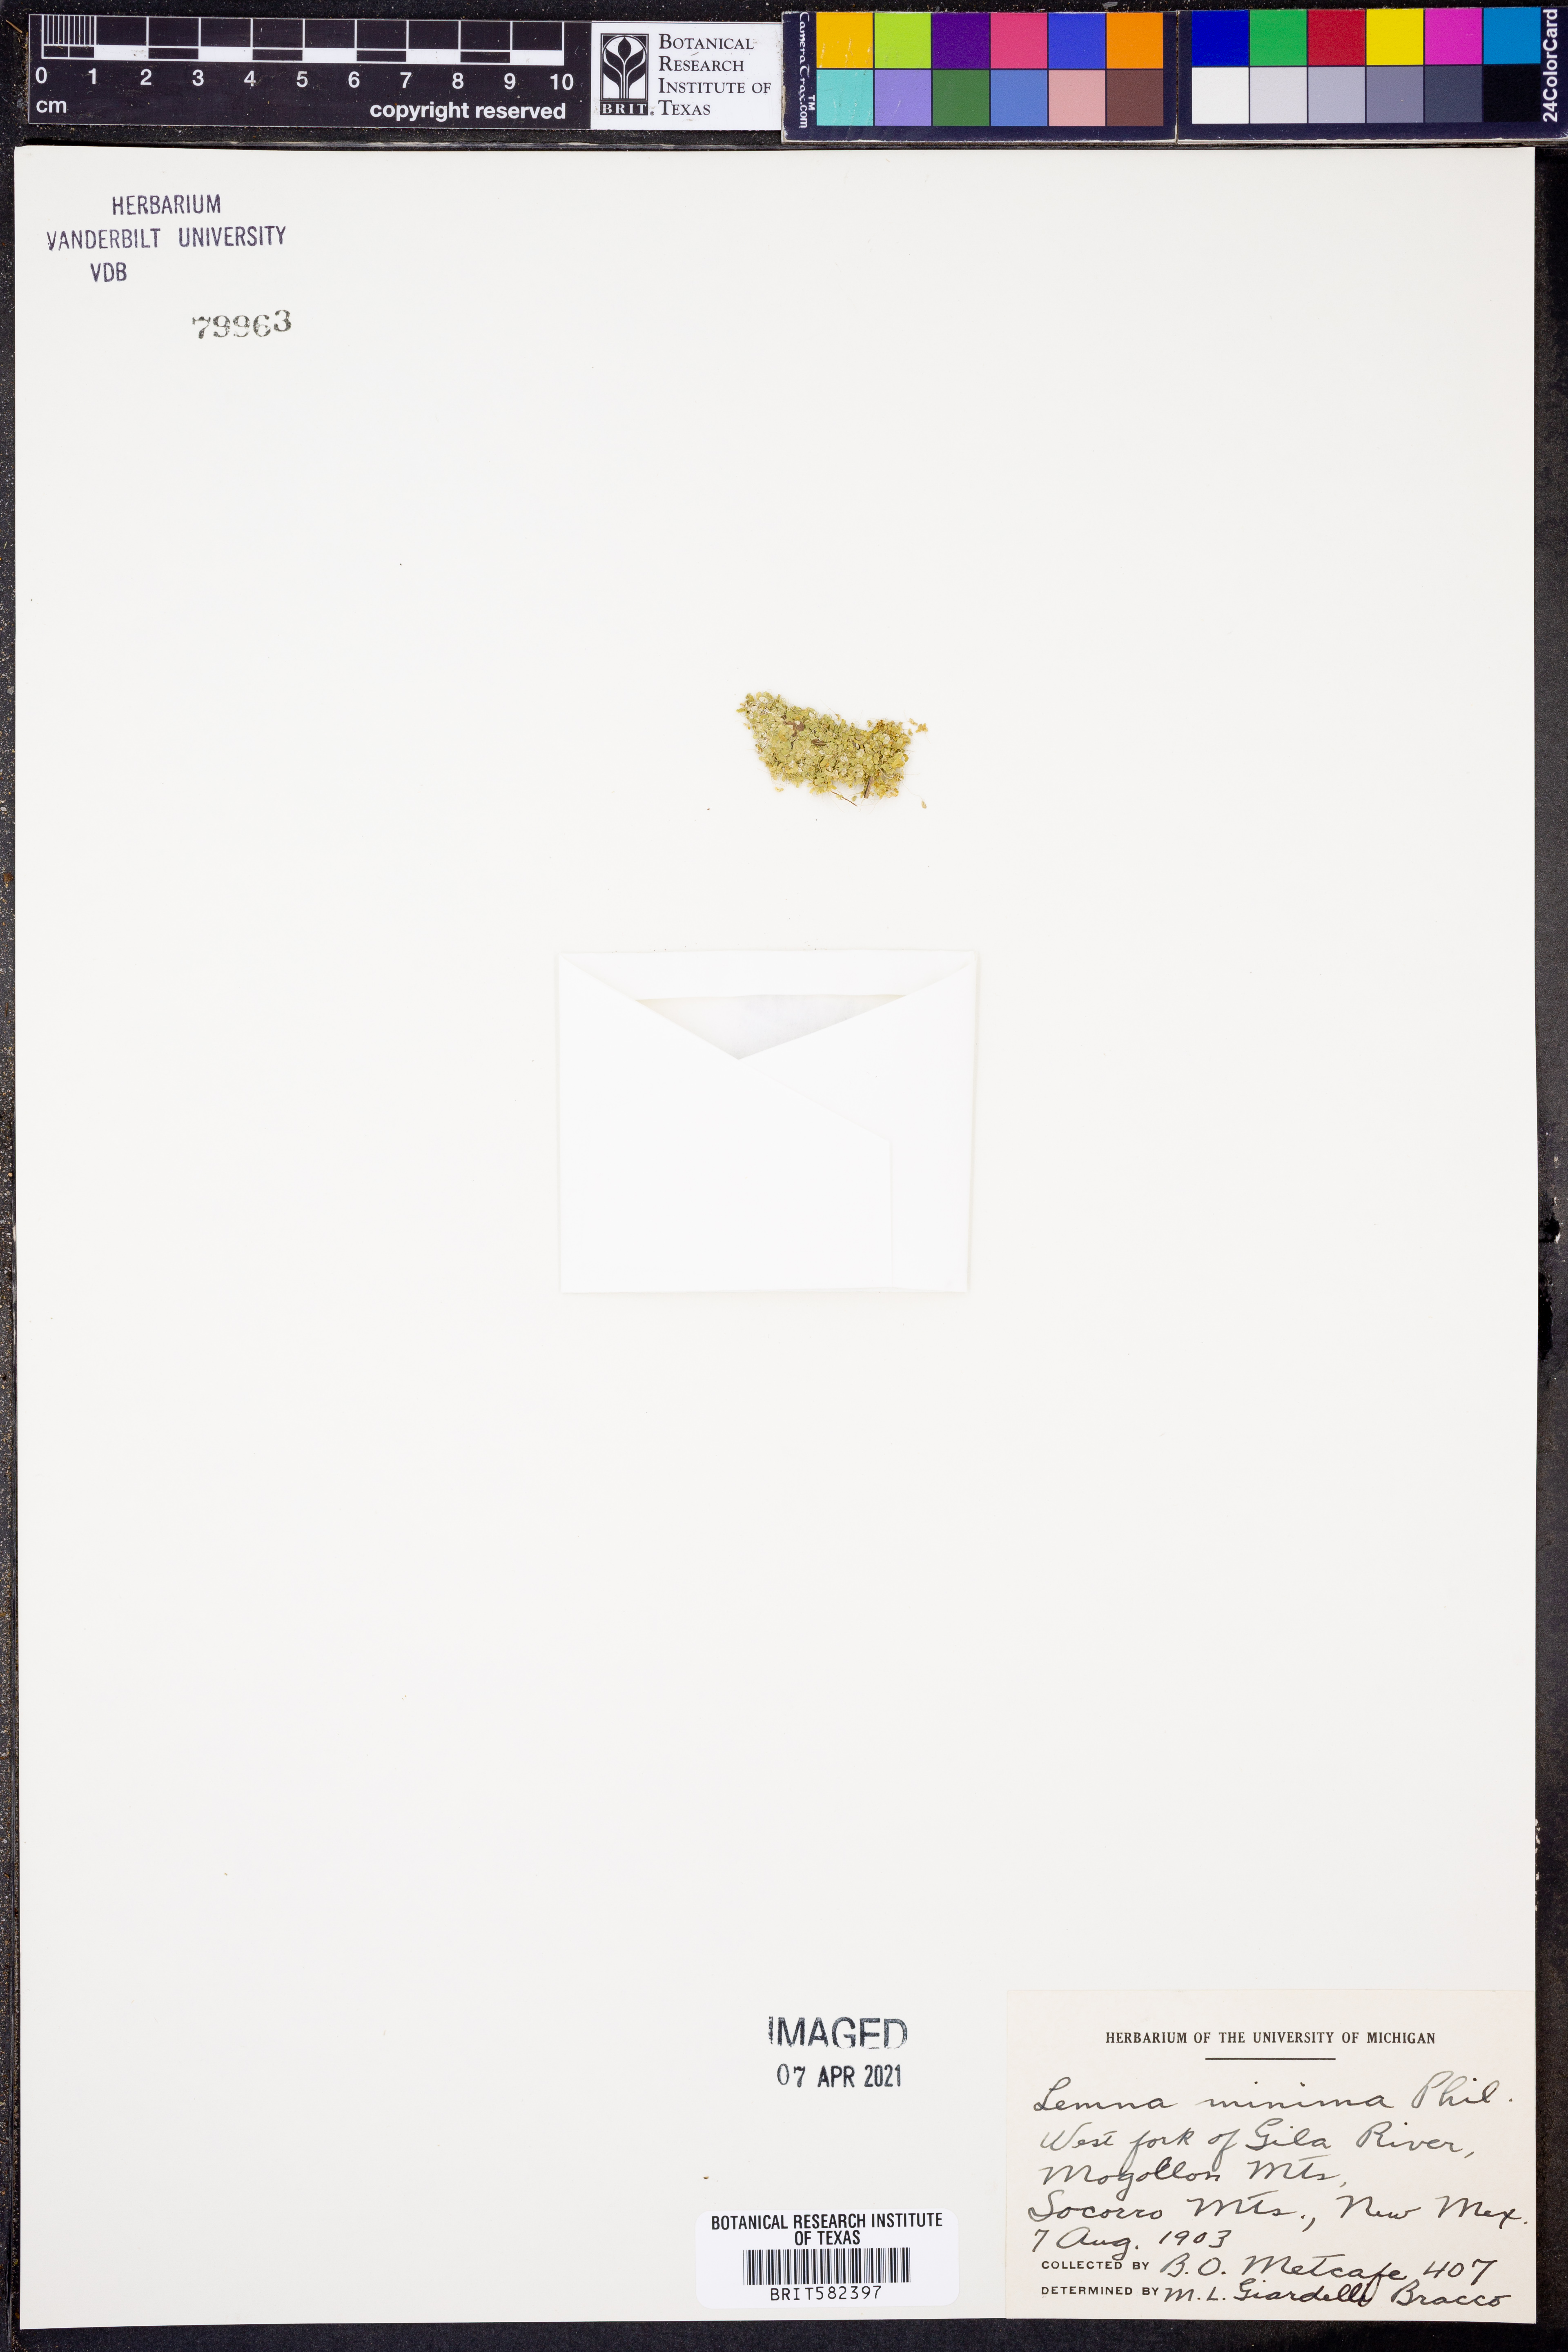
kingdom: Plantae
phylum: Tracheophyta
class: Liliopsida
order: Alismatales
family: Araceae
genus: Lemna
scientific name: Lemna minuta
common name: Least duckweed
